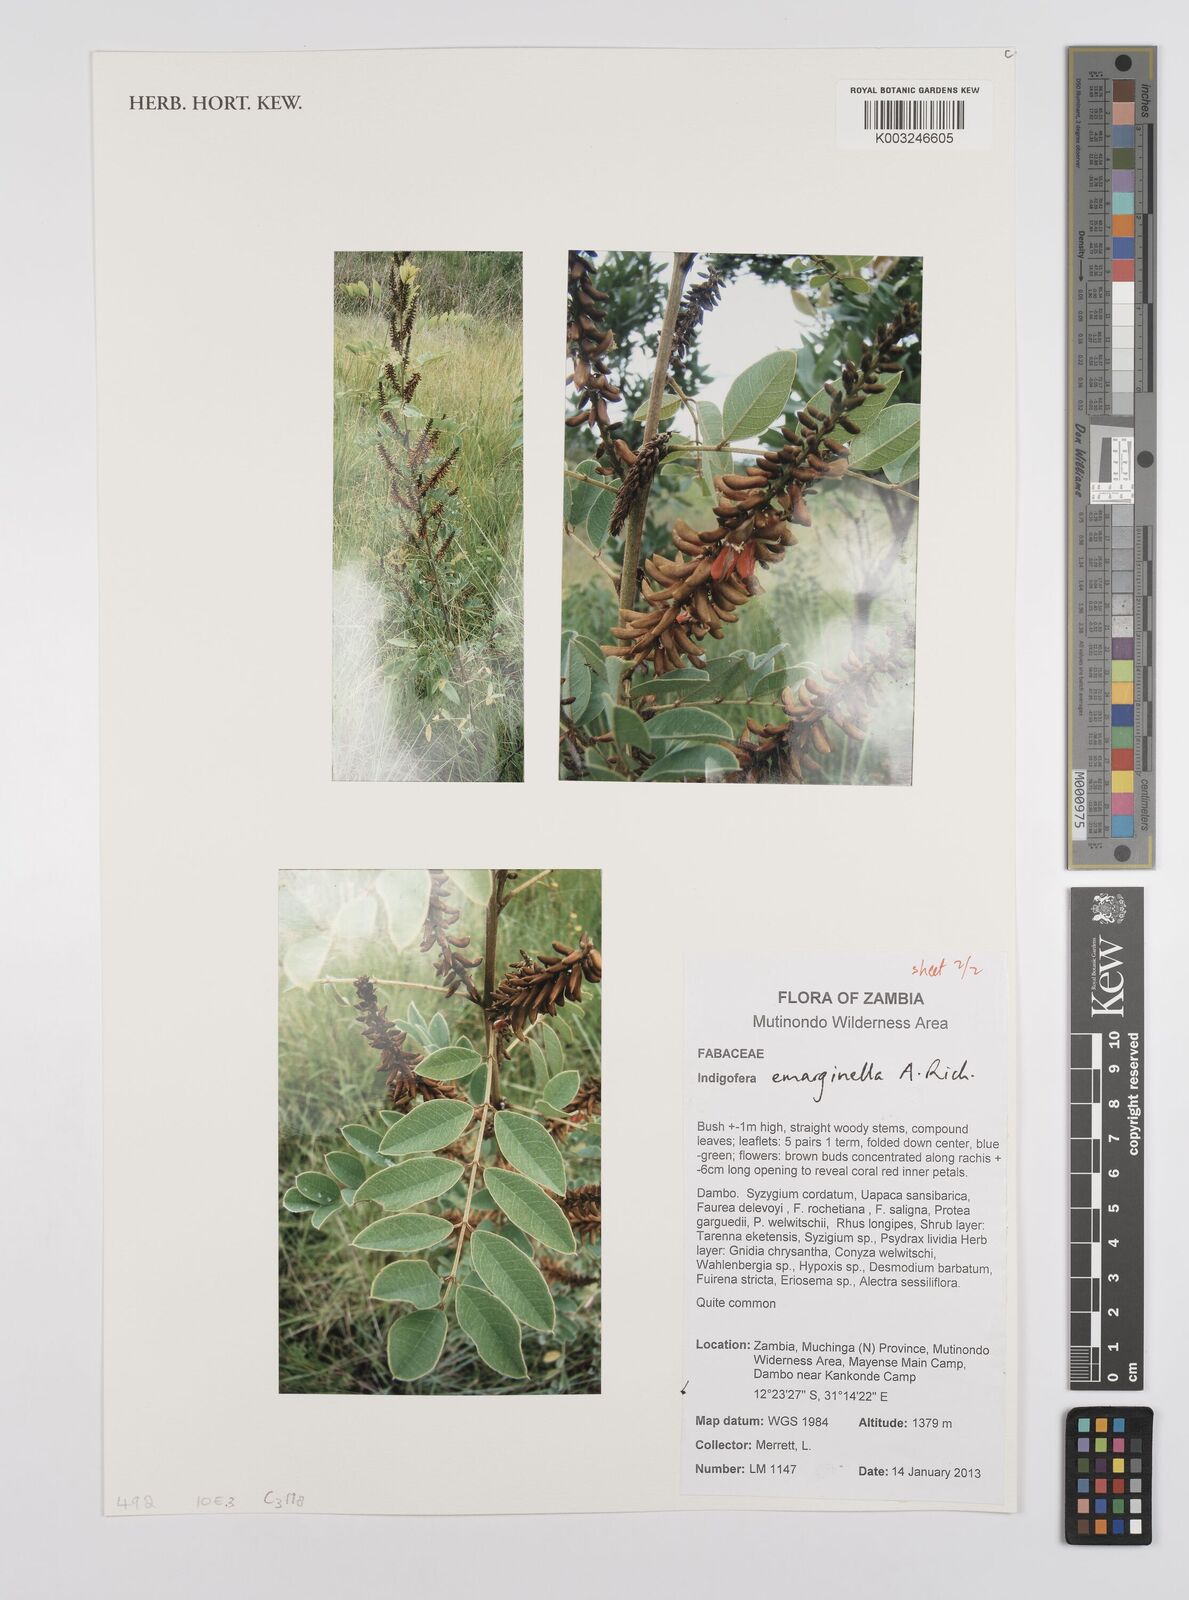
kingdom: Plantae
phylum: Tracheophyta
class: Magnoliopsida
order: Fabales
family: Fabaceae
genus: Indigofera
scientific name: Indigofera emarginella
